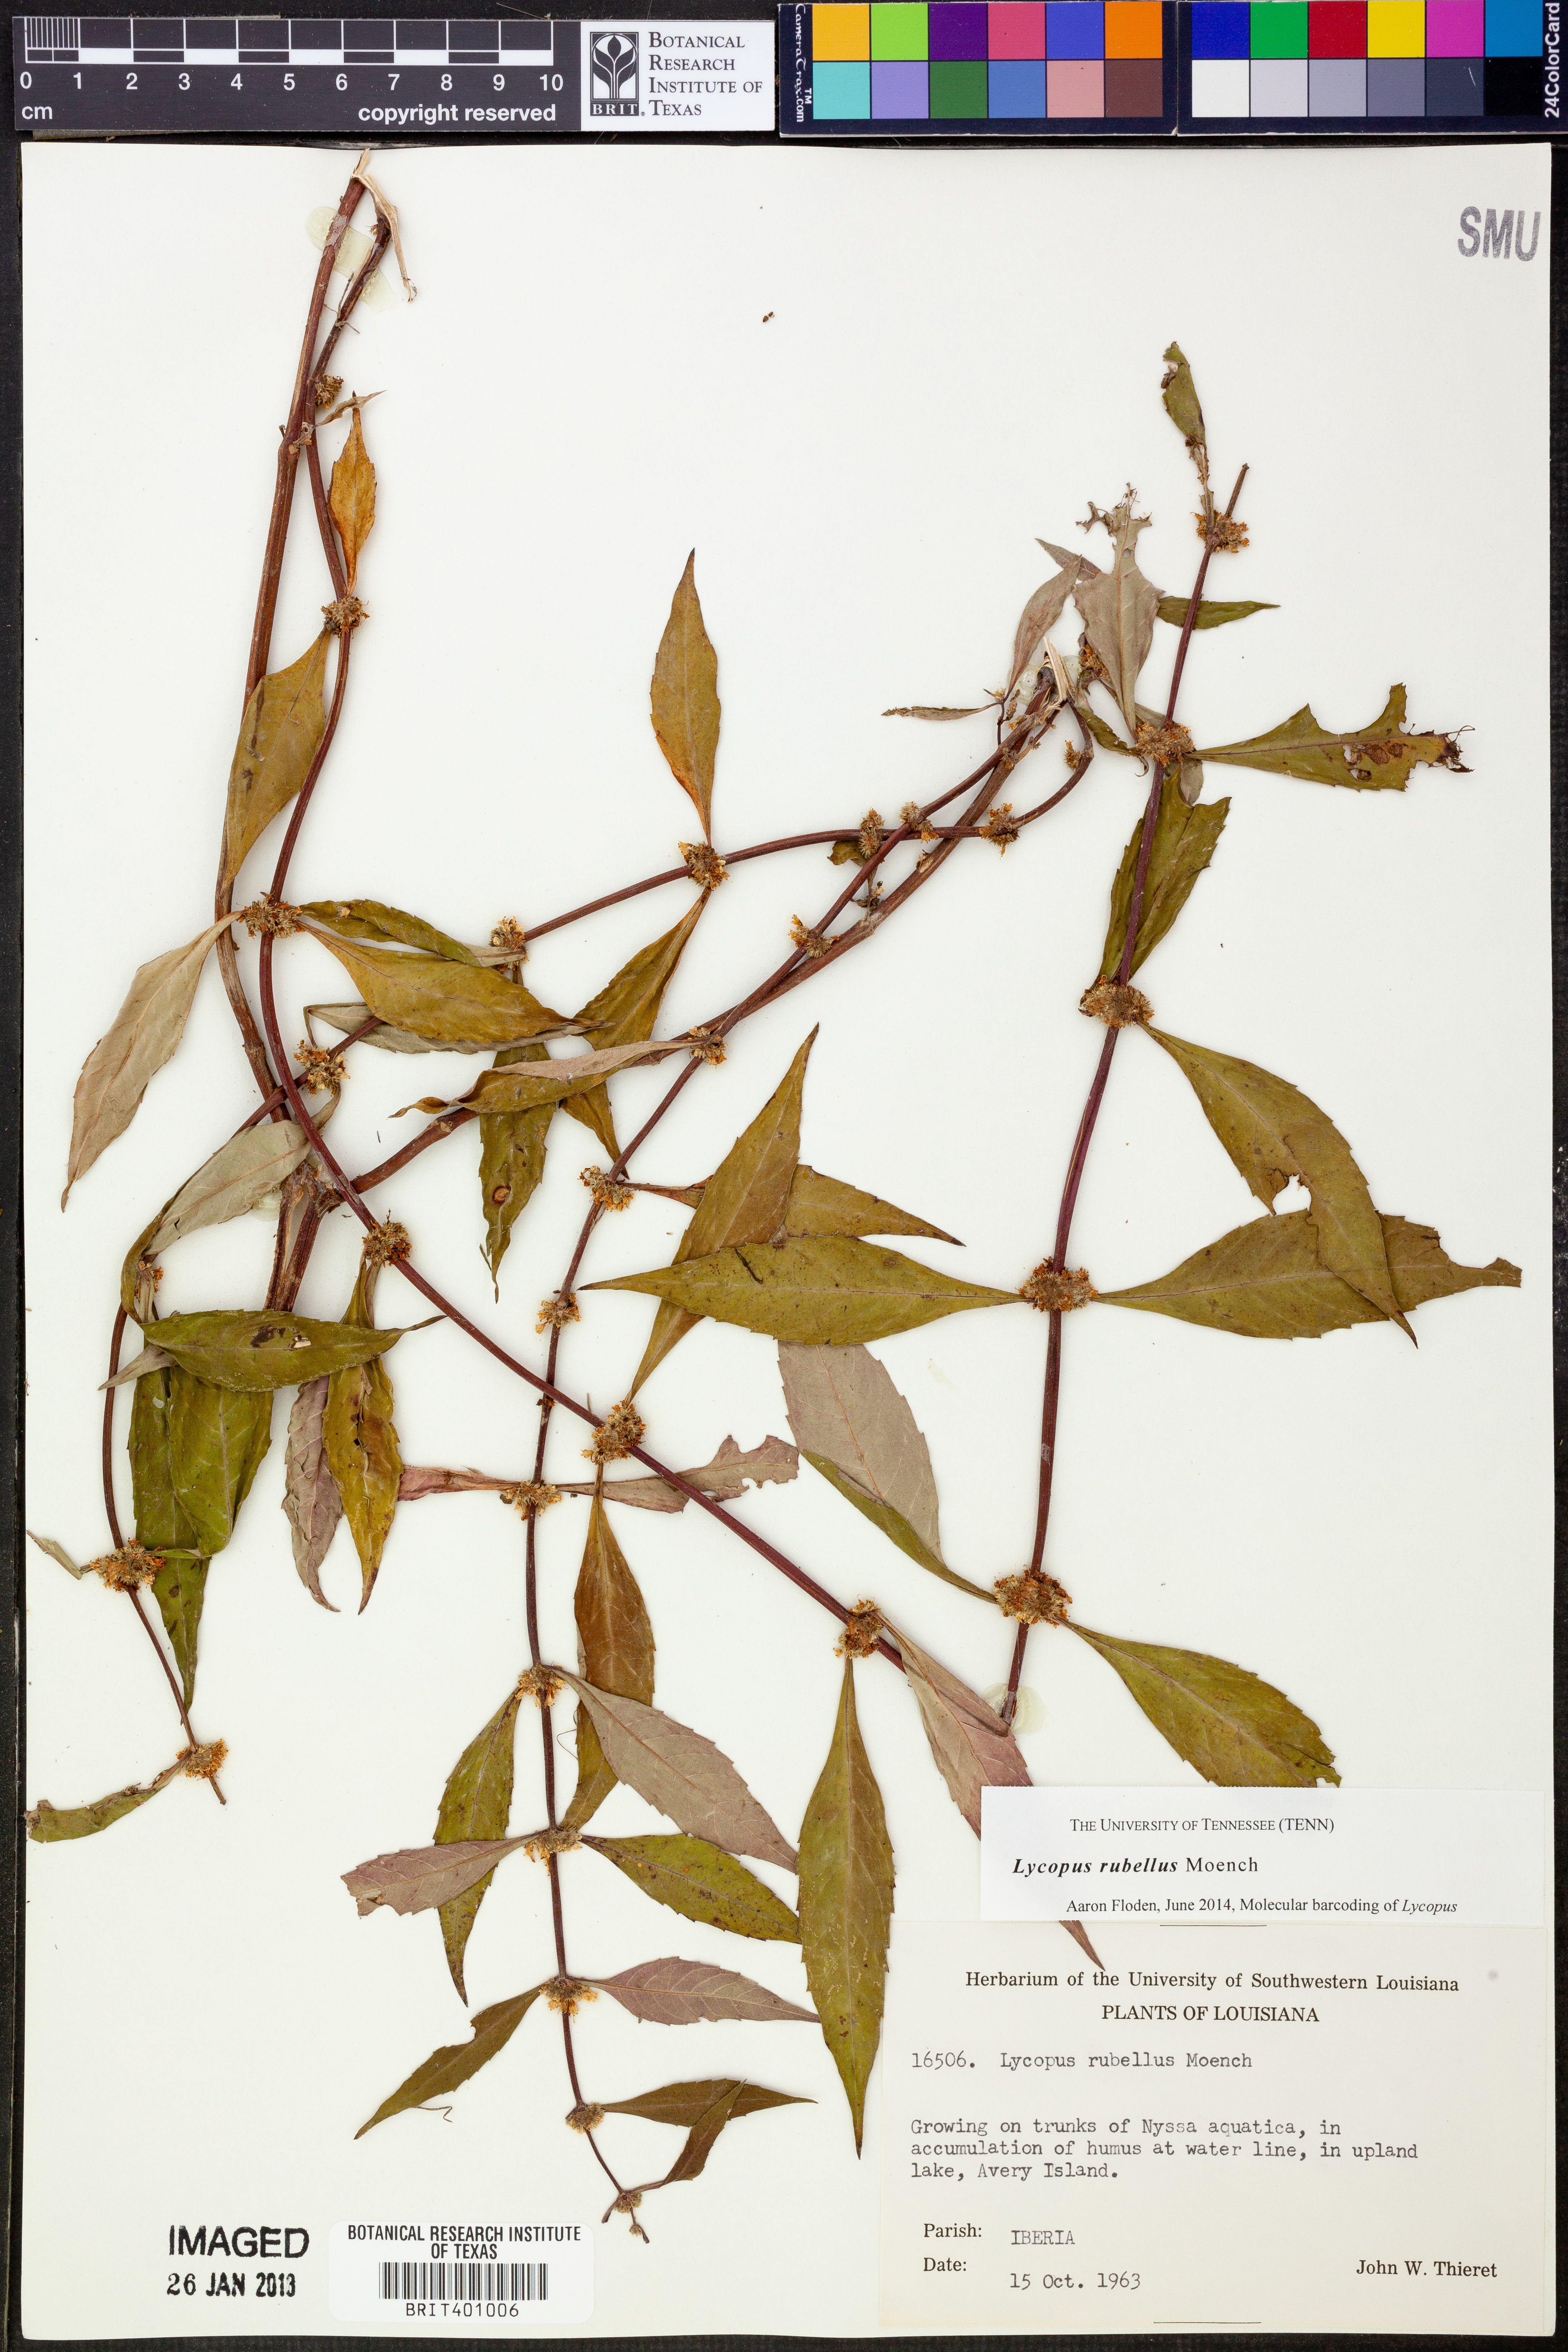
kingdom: Plantae
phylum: Tracheophyta
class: Magnoliopsida
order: Lamiales
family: Lamiaceae
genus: Lycopus
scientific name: Lycopus rubellus
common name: Stalked bugleweed
